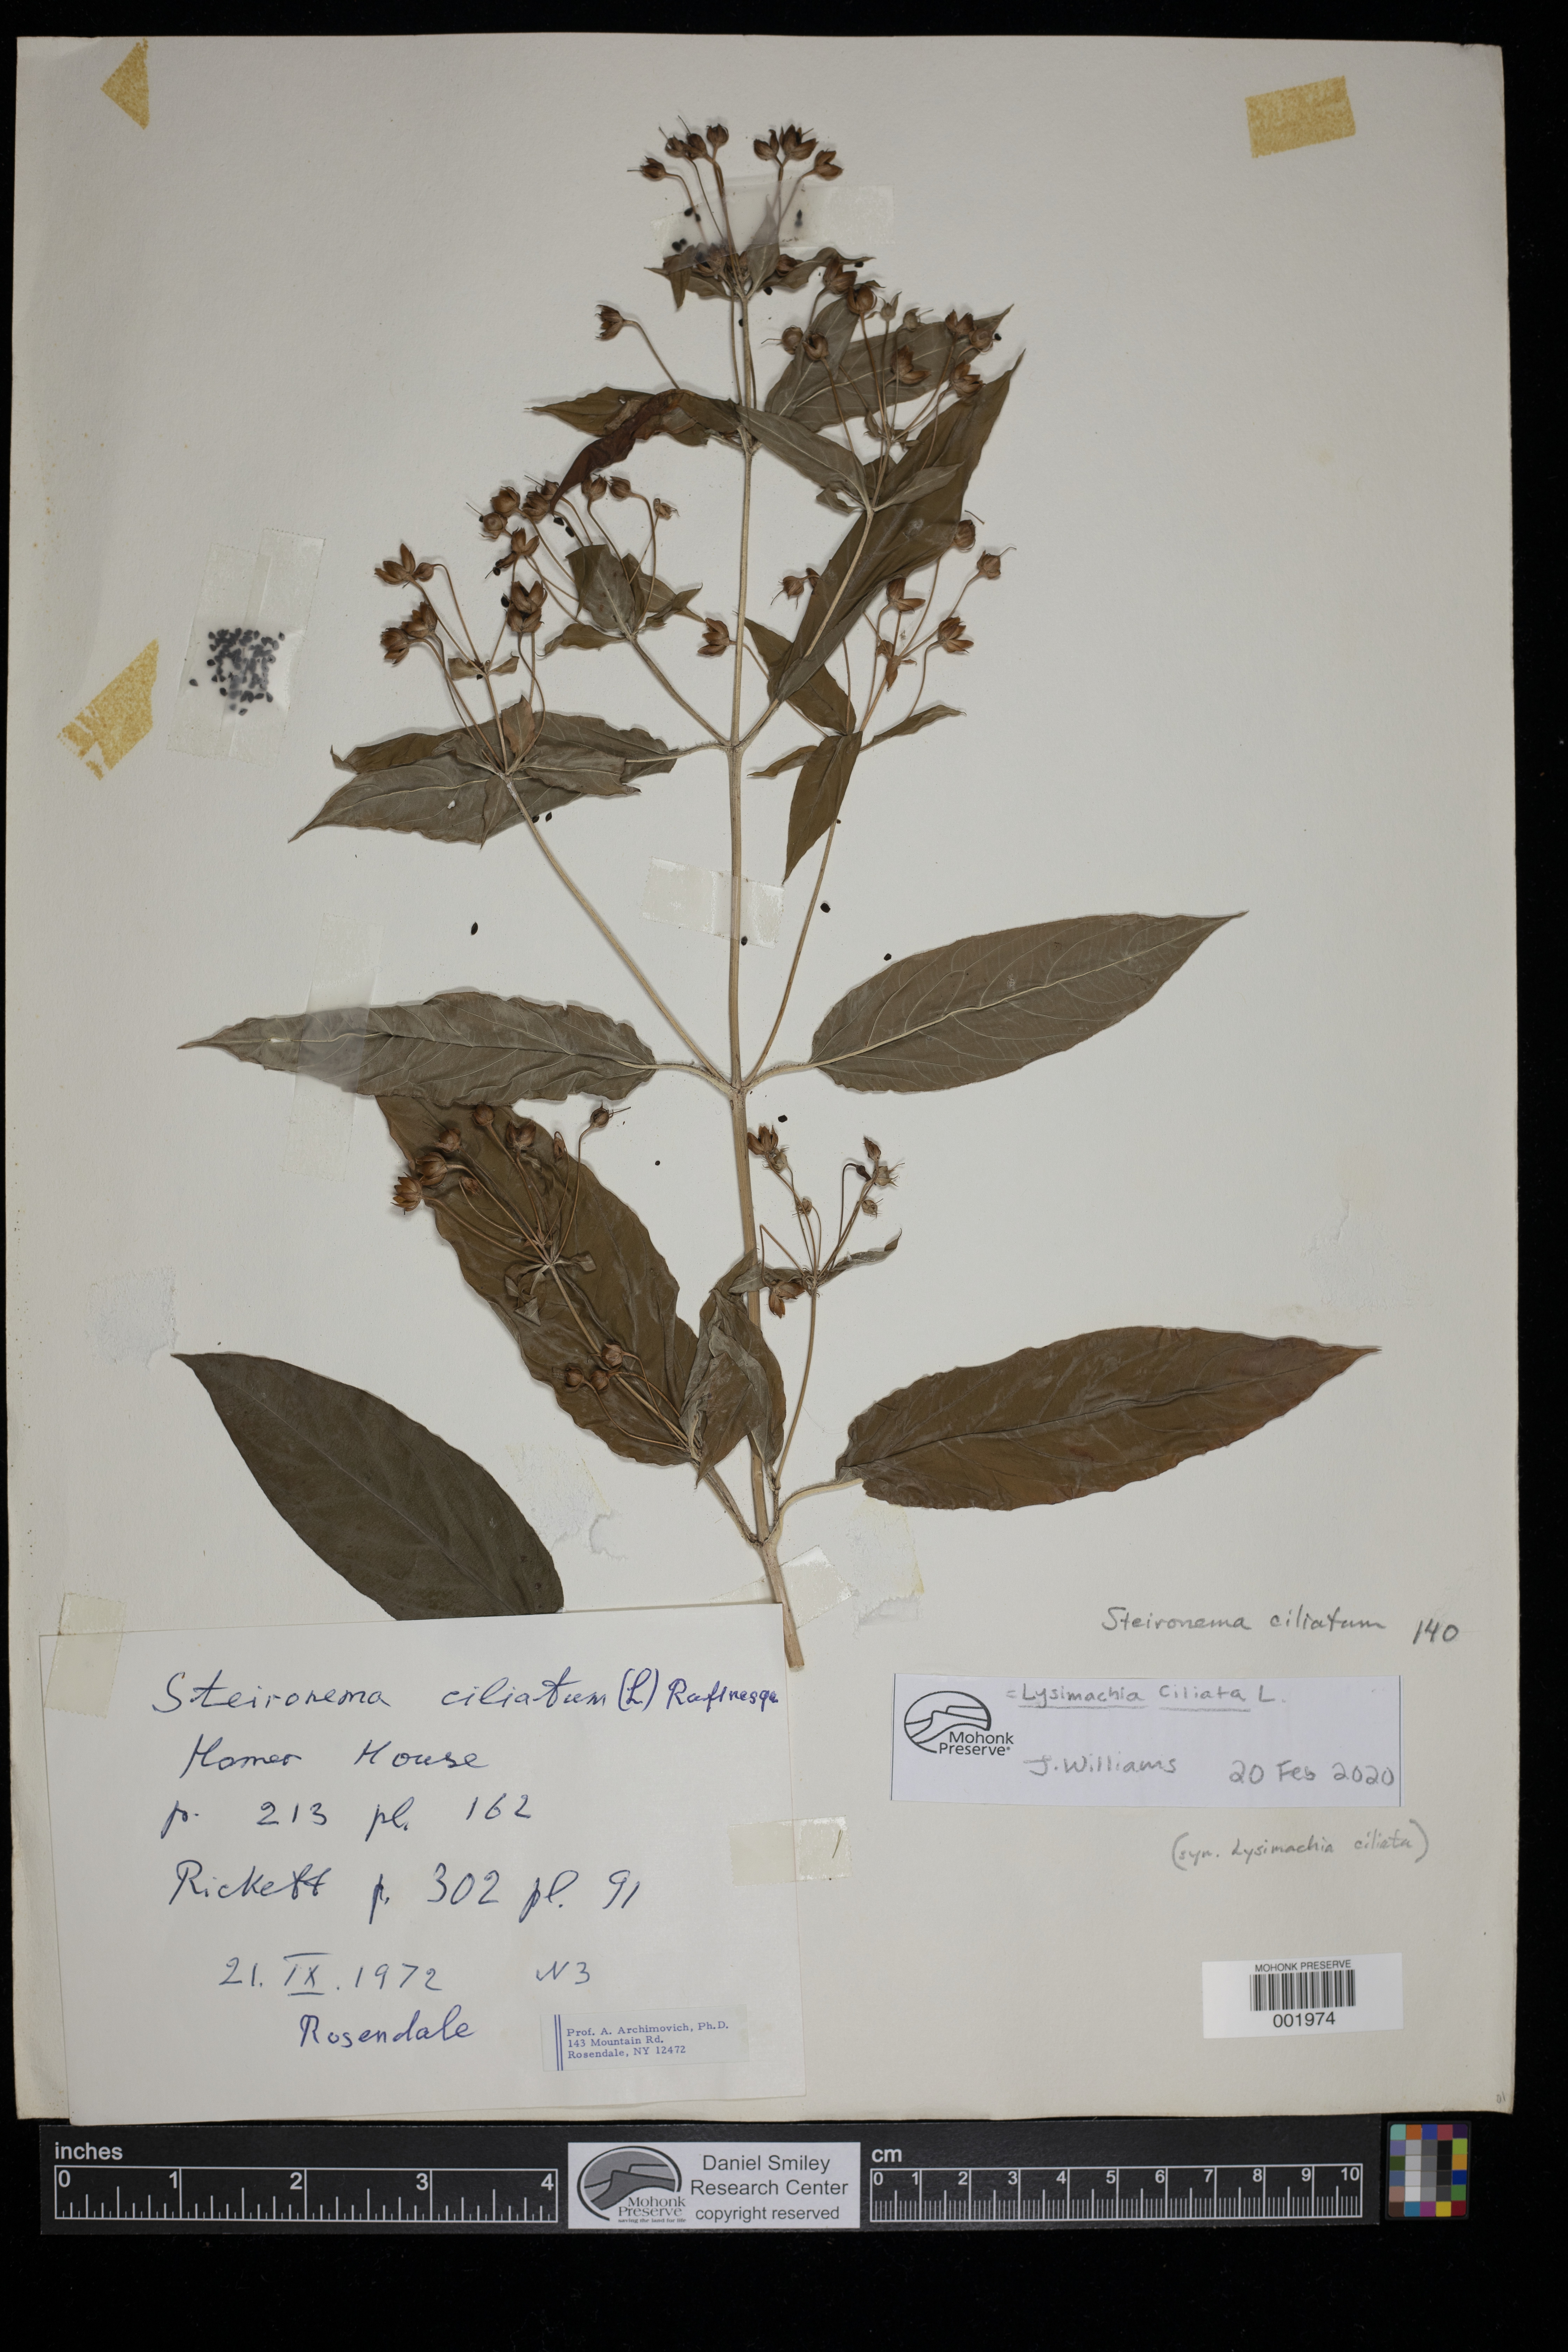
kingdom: Plantae
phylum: Tracheophyta
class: Magnoliopsida
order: Ericales
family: Primulaceae
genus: Lysimachia
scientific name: Lysimachia ciliata
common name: Fringed loosestrife
